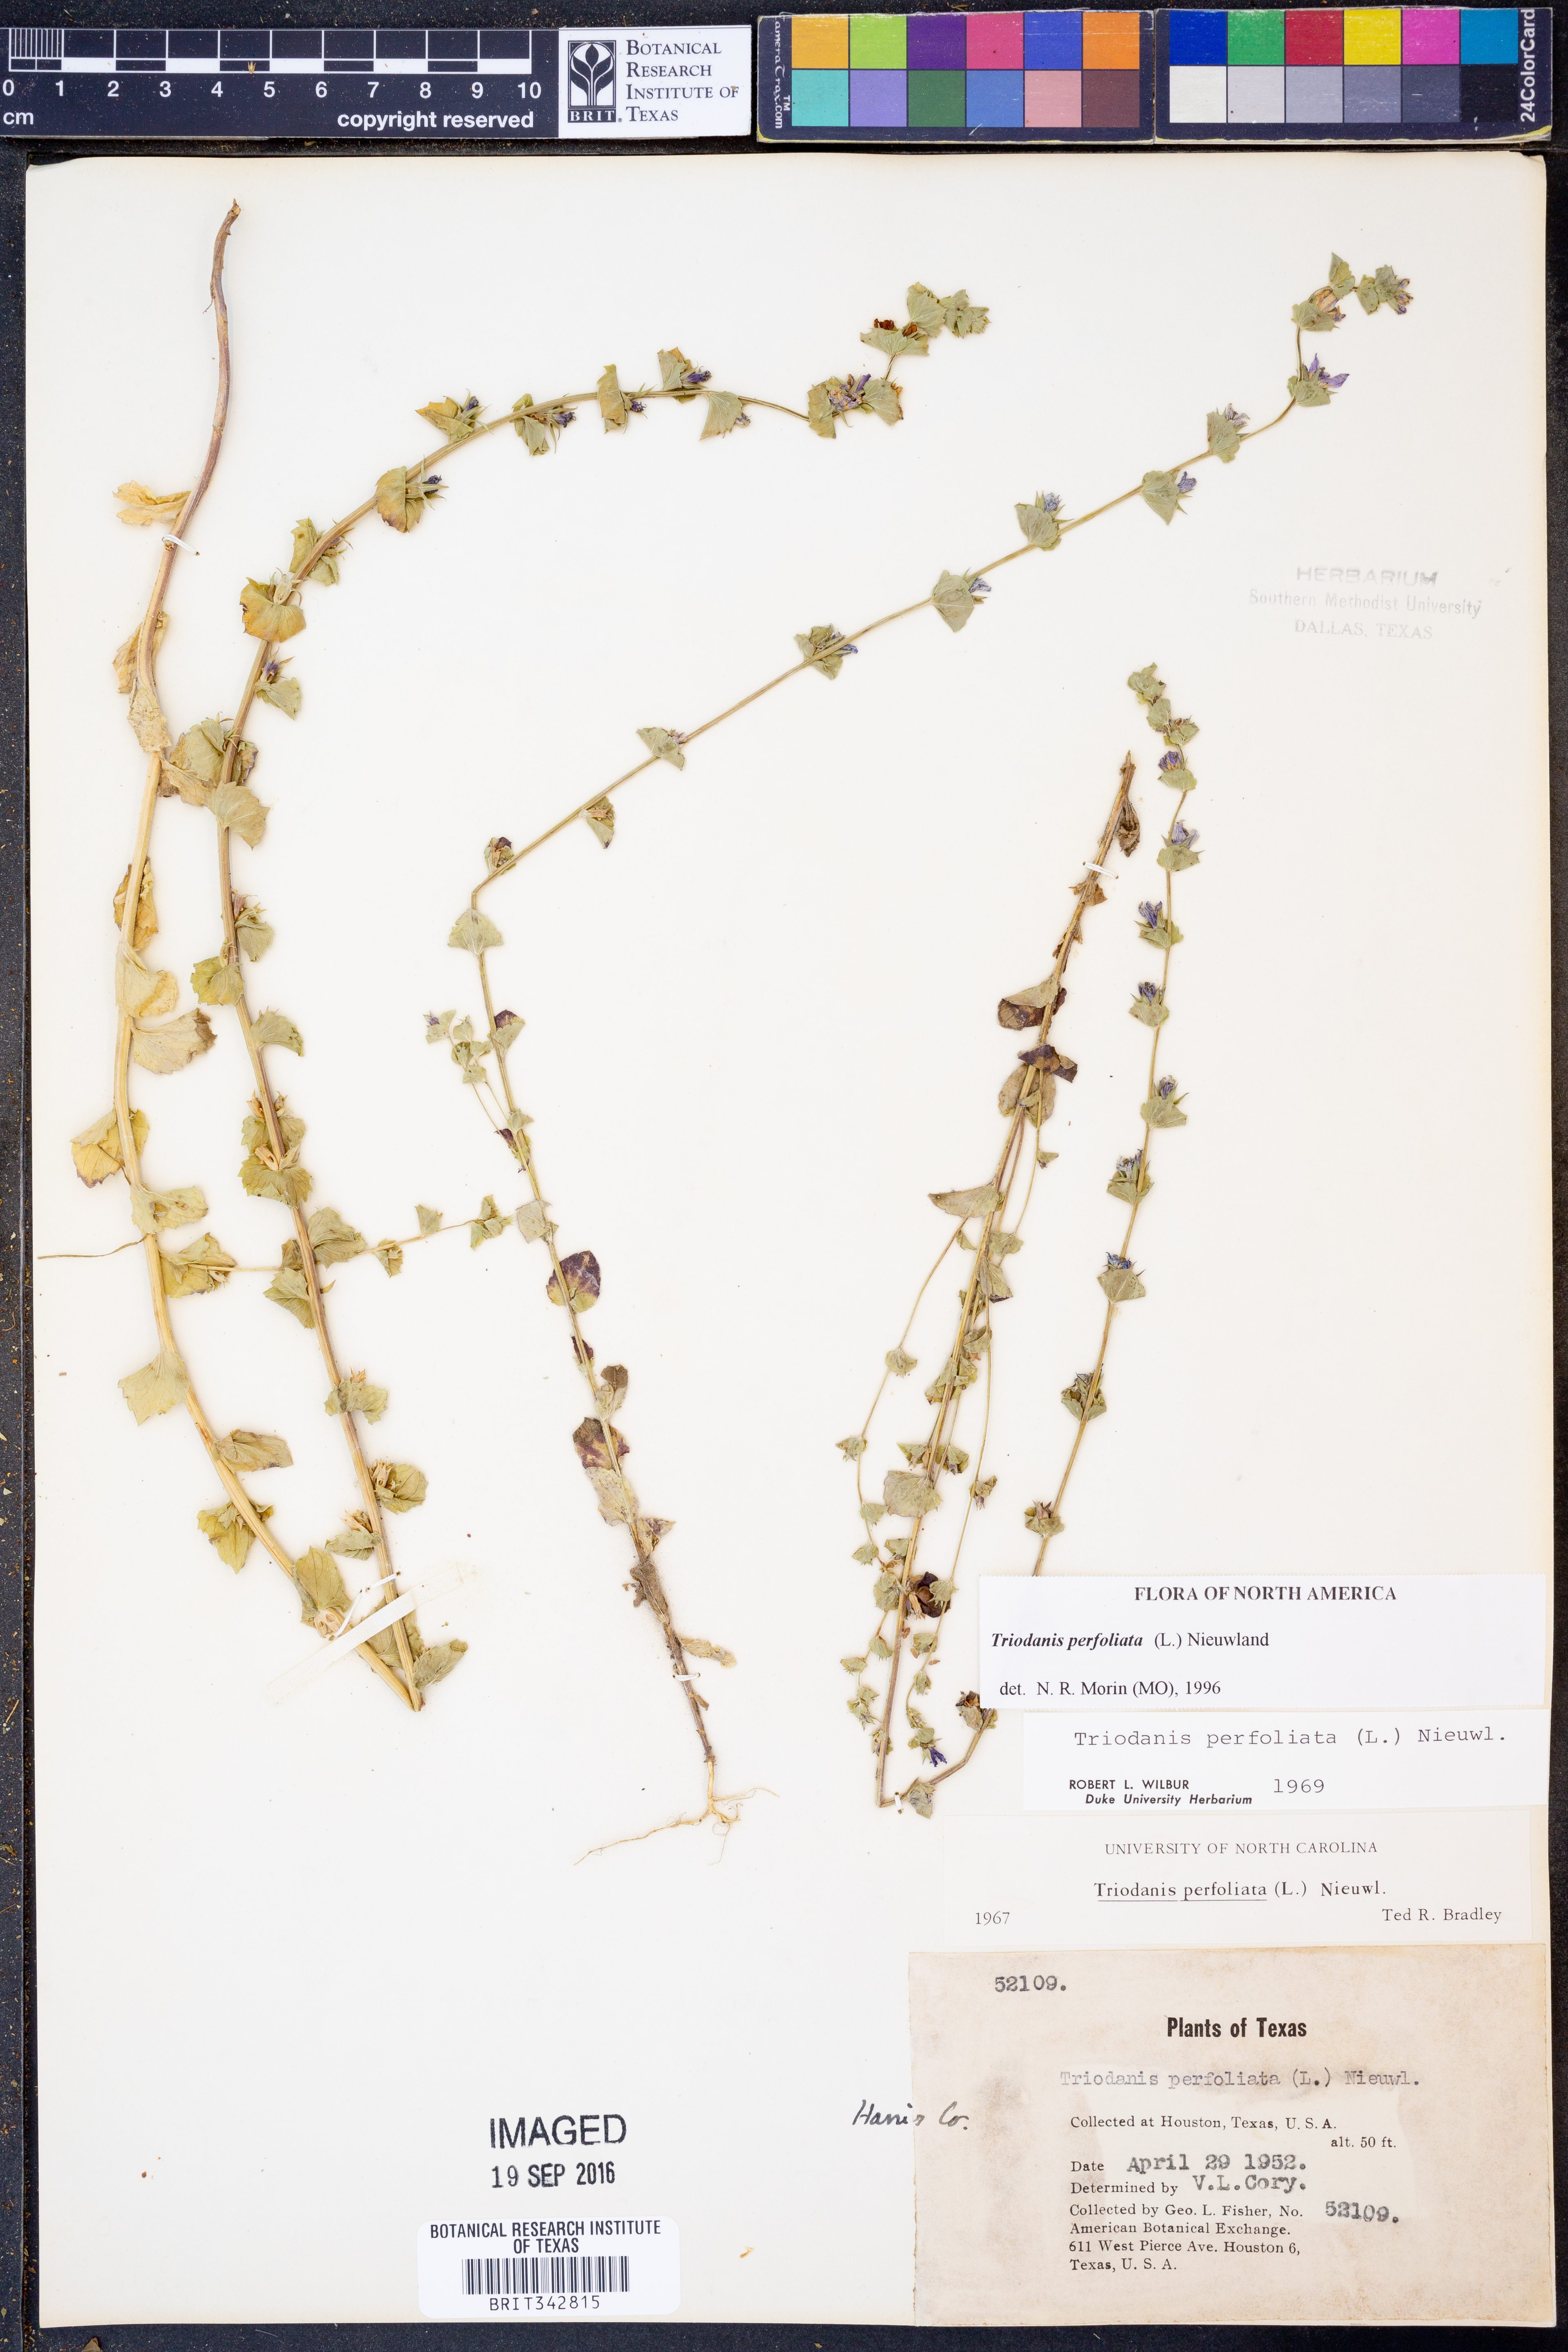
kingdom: Plantae
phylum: Tracheophyta
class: Magnoliopsida
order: Asterales
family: Campanulaceae
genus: Triodanis
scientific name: Triodanis perfoliata
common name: Clasping venus' looking-glass
